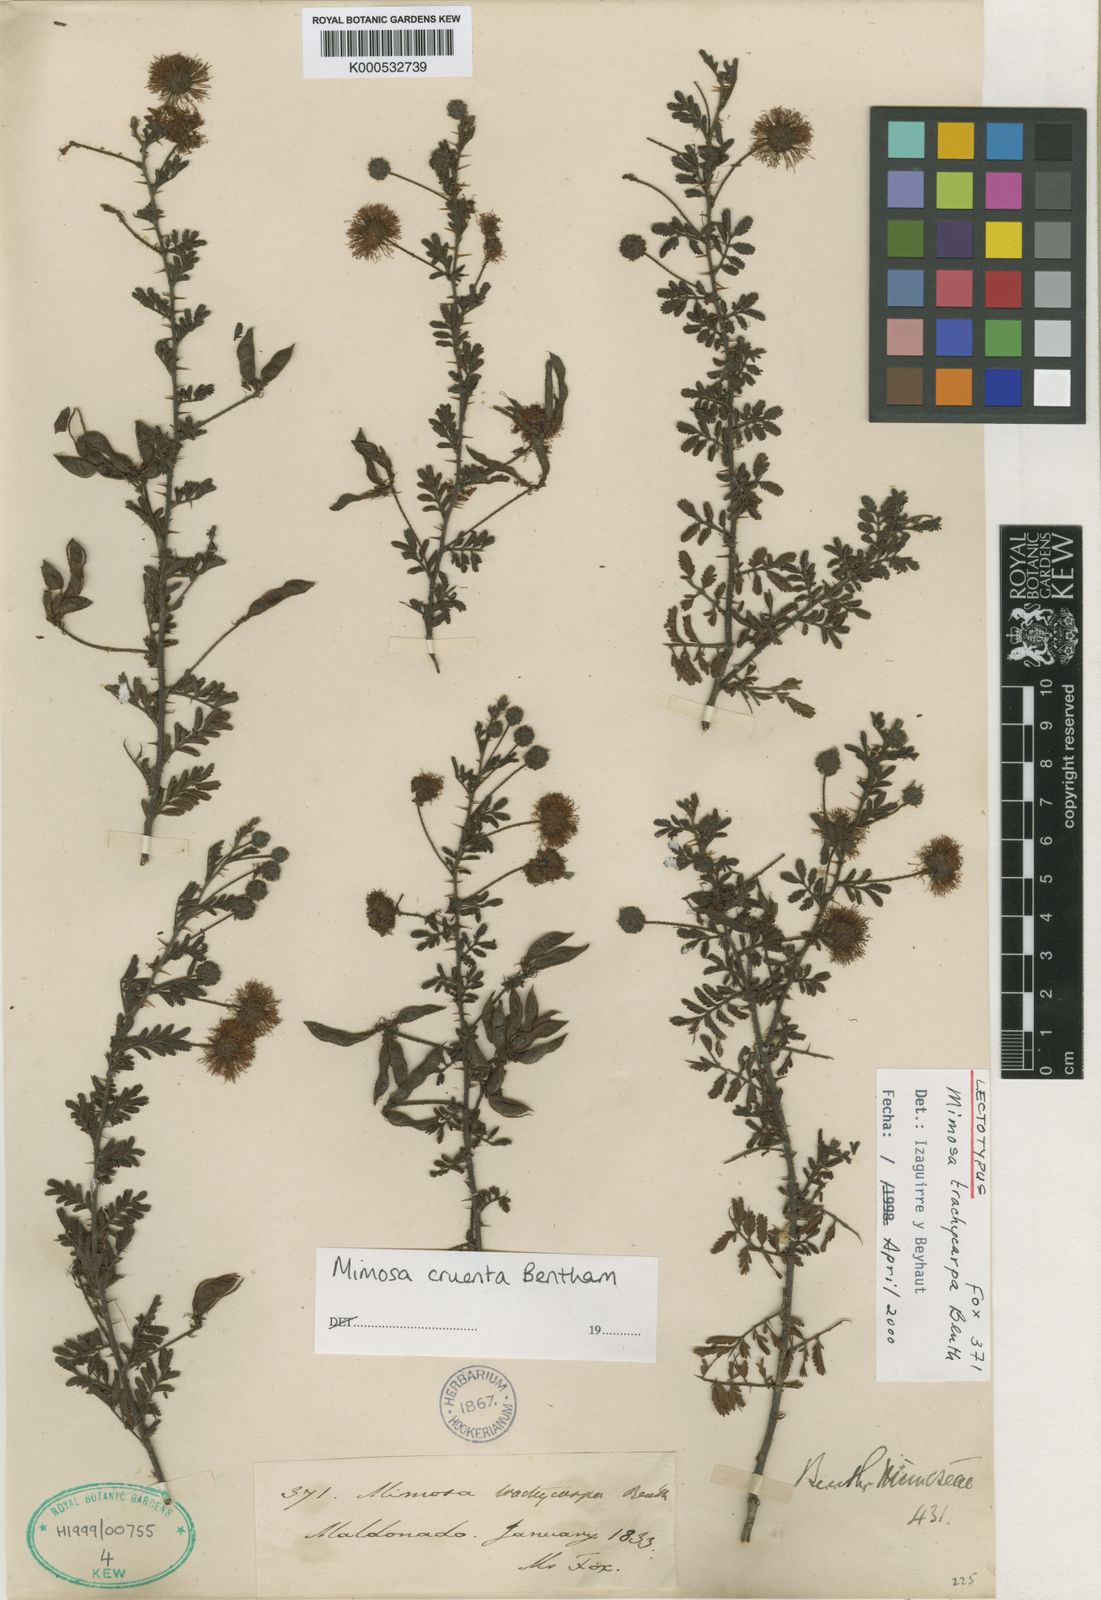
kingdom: Plantae
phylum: Tracheophyta
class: Magnoliopsida
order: Fabales
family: Fabaceae
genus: Mimosa
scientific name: Mimosa cruenta
